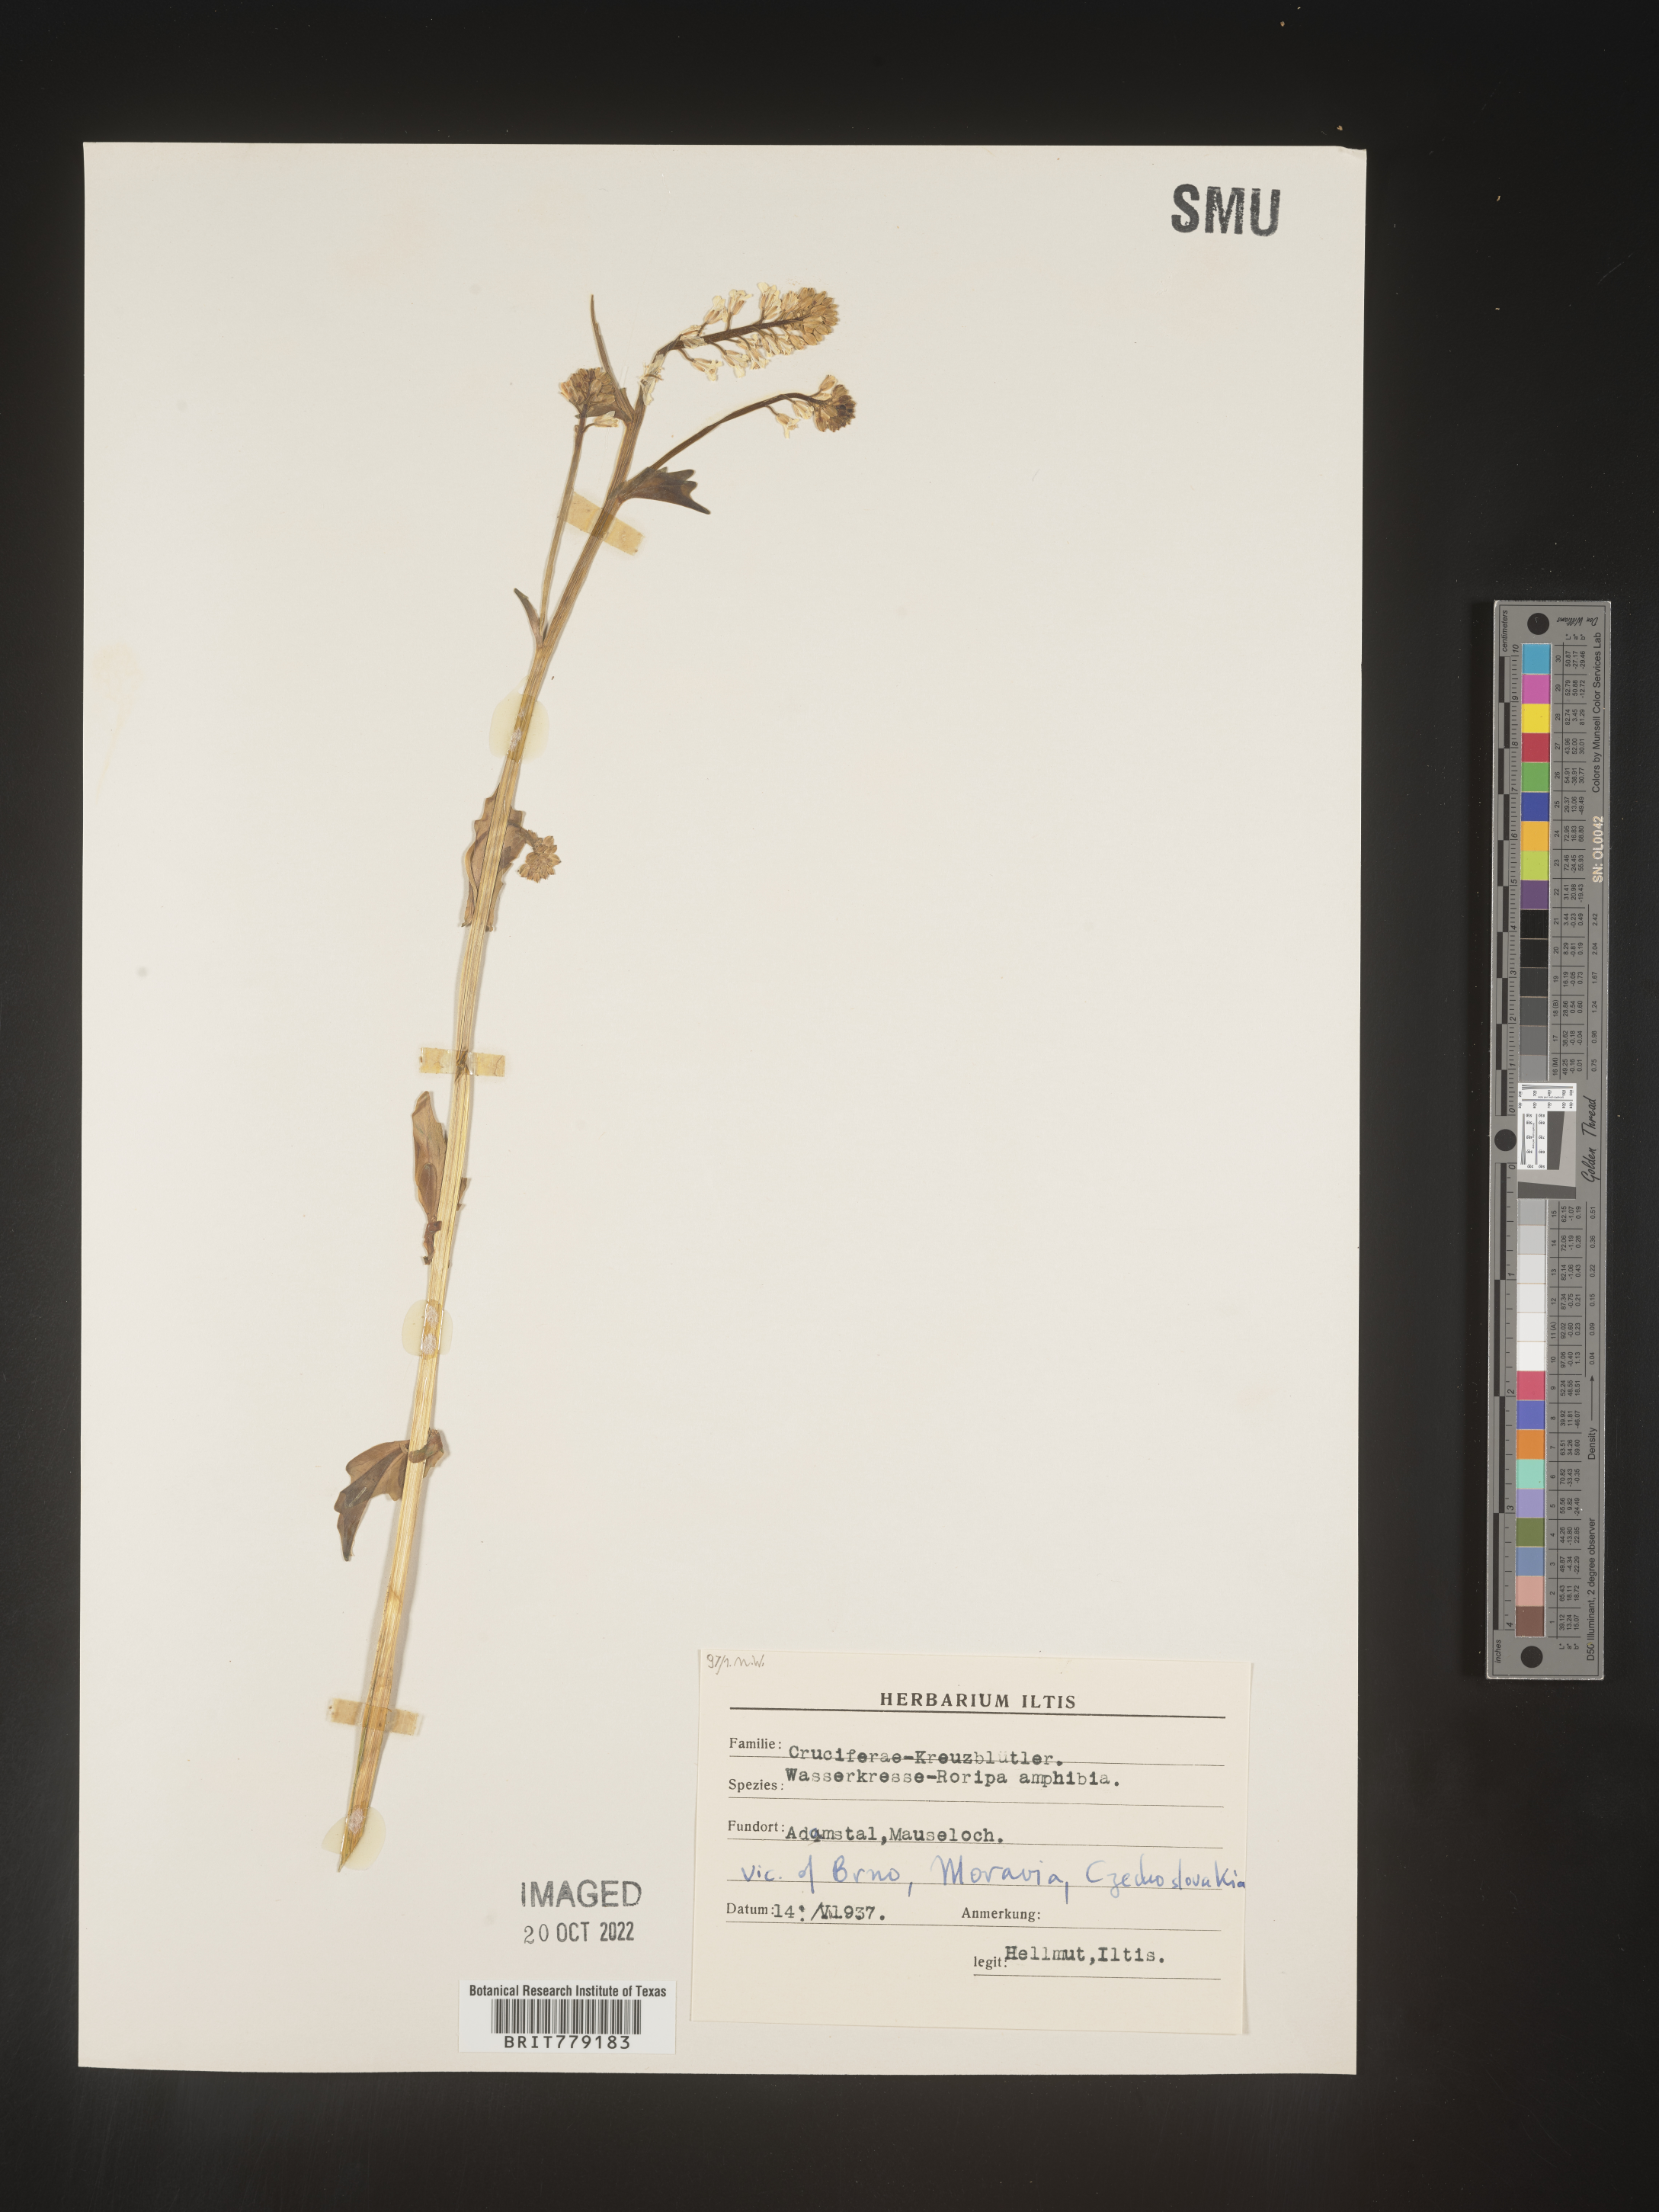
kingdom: Plantae
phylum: Tracheophyta
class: Magnoliopsida
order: Brassicales
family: Brassicaceae
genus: Rorippa
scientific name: Rorippa
